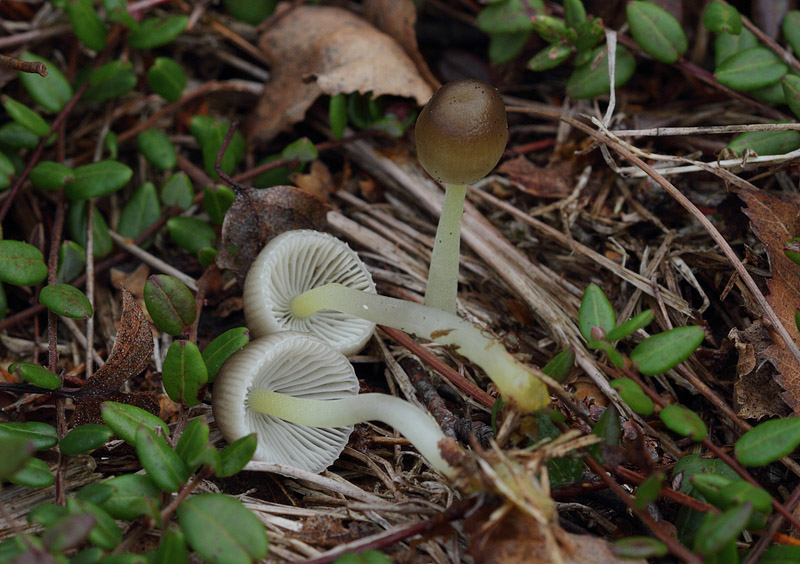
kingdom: Fungi
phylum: Basidiomycota
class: Agaricomycetes
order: Agaricales
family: Mycenaceae
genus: Mycena
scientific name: Mycena epipterygia
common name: gulstokket huesvamp
